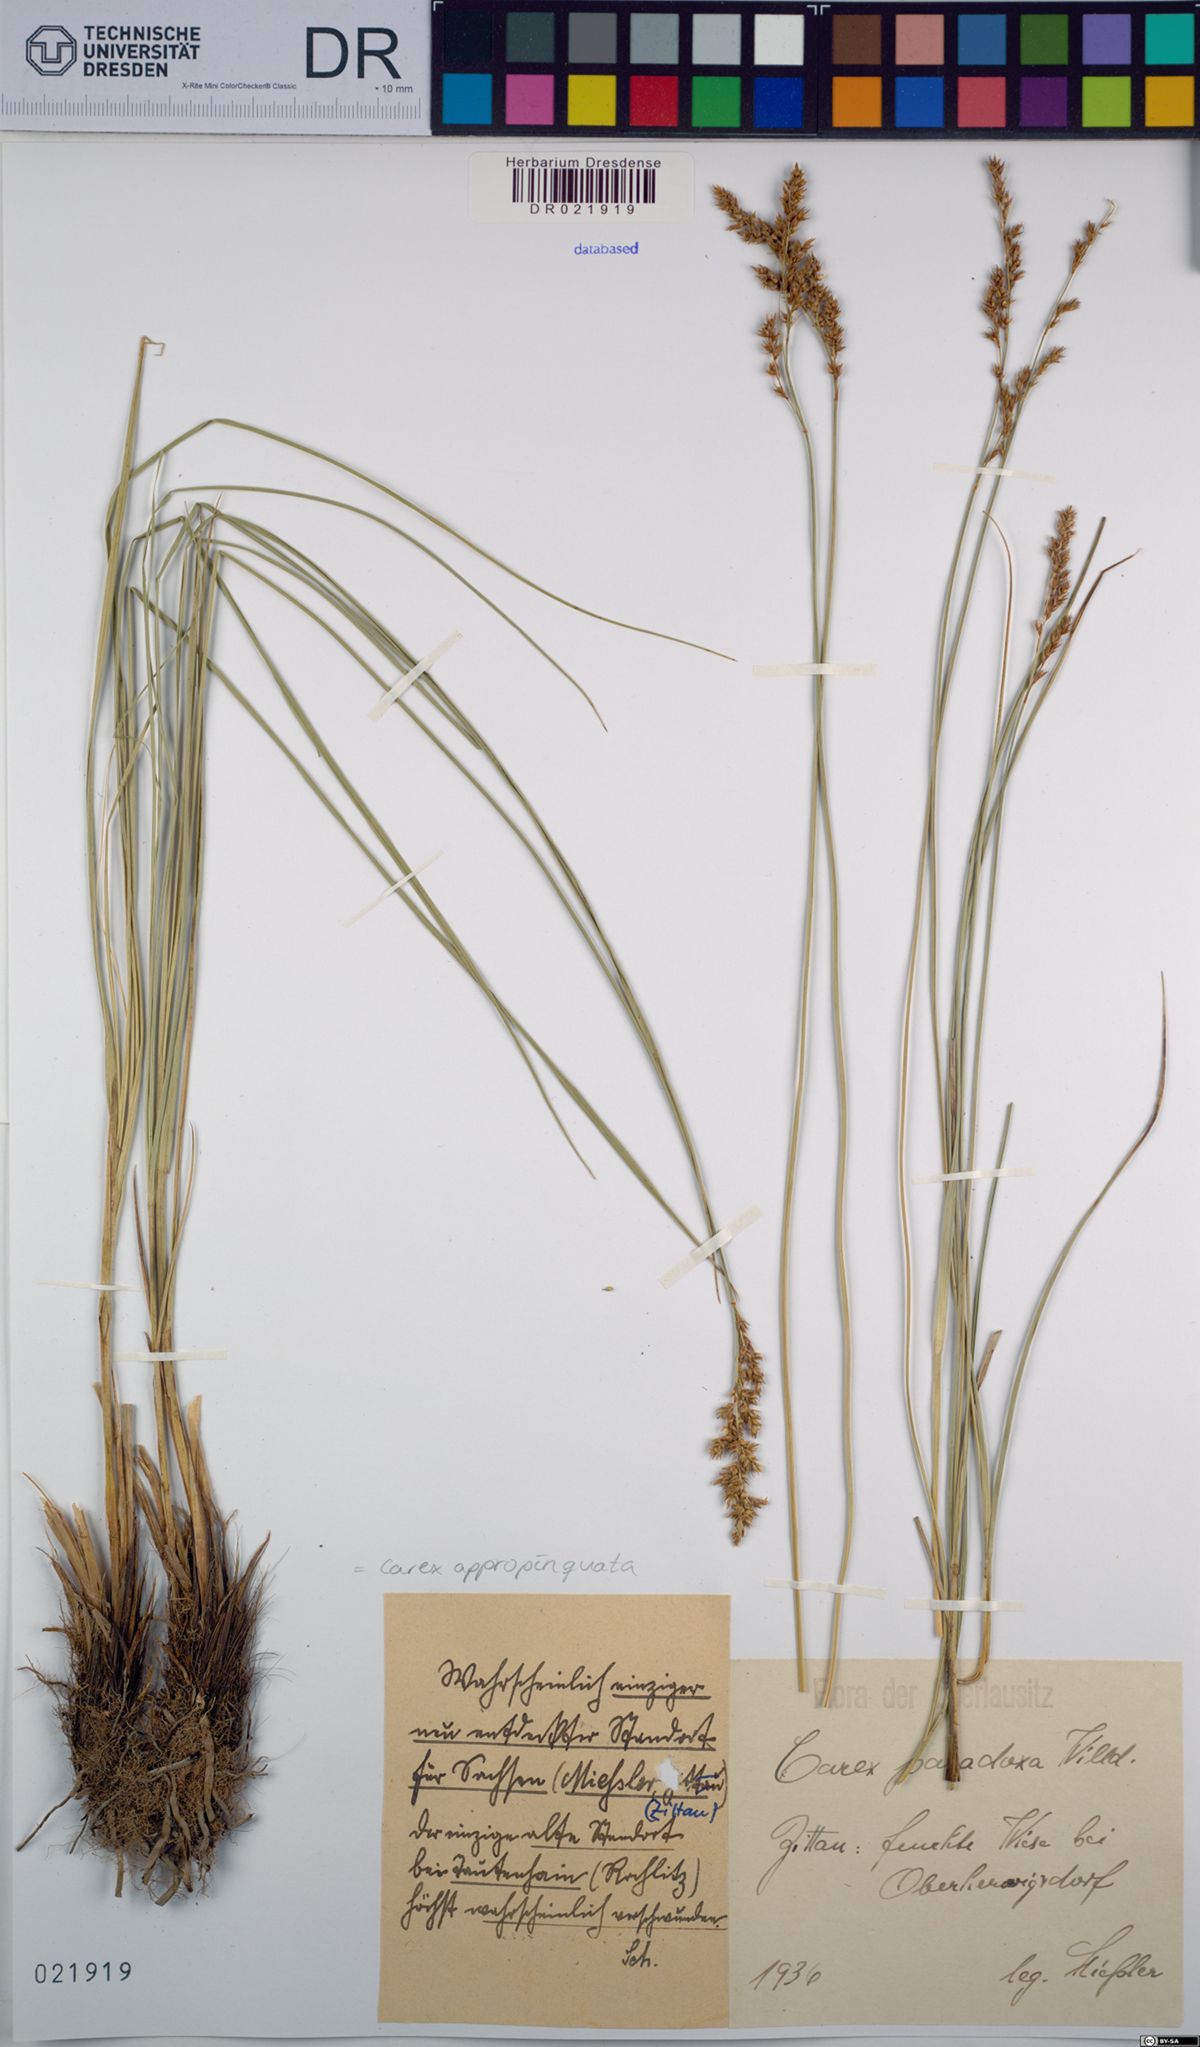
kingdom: Plantae
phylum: Tracheophyta
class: Liliopsida
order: Poales
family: Cyperaceae
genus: Carex
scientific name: Carex appropinquata
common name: Fibrous tussock-sedge
